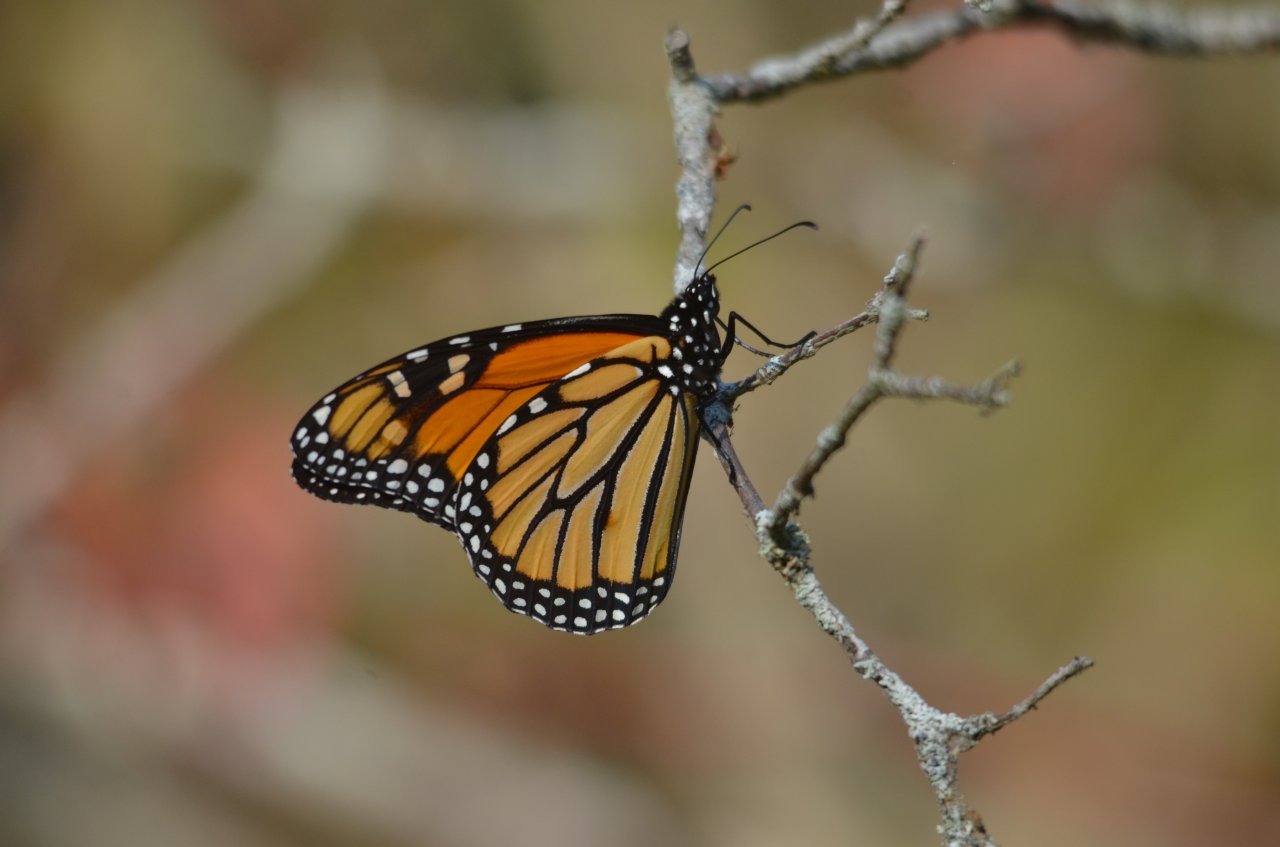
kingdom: Animalia
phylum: Arthropoda
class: Insecta
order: Lepidoptera
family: Nymphalidae
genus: Danaus
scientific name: Danaus plexippus
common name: Monarch
